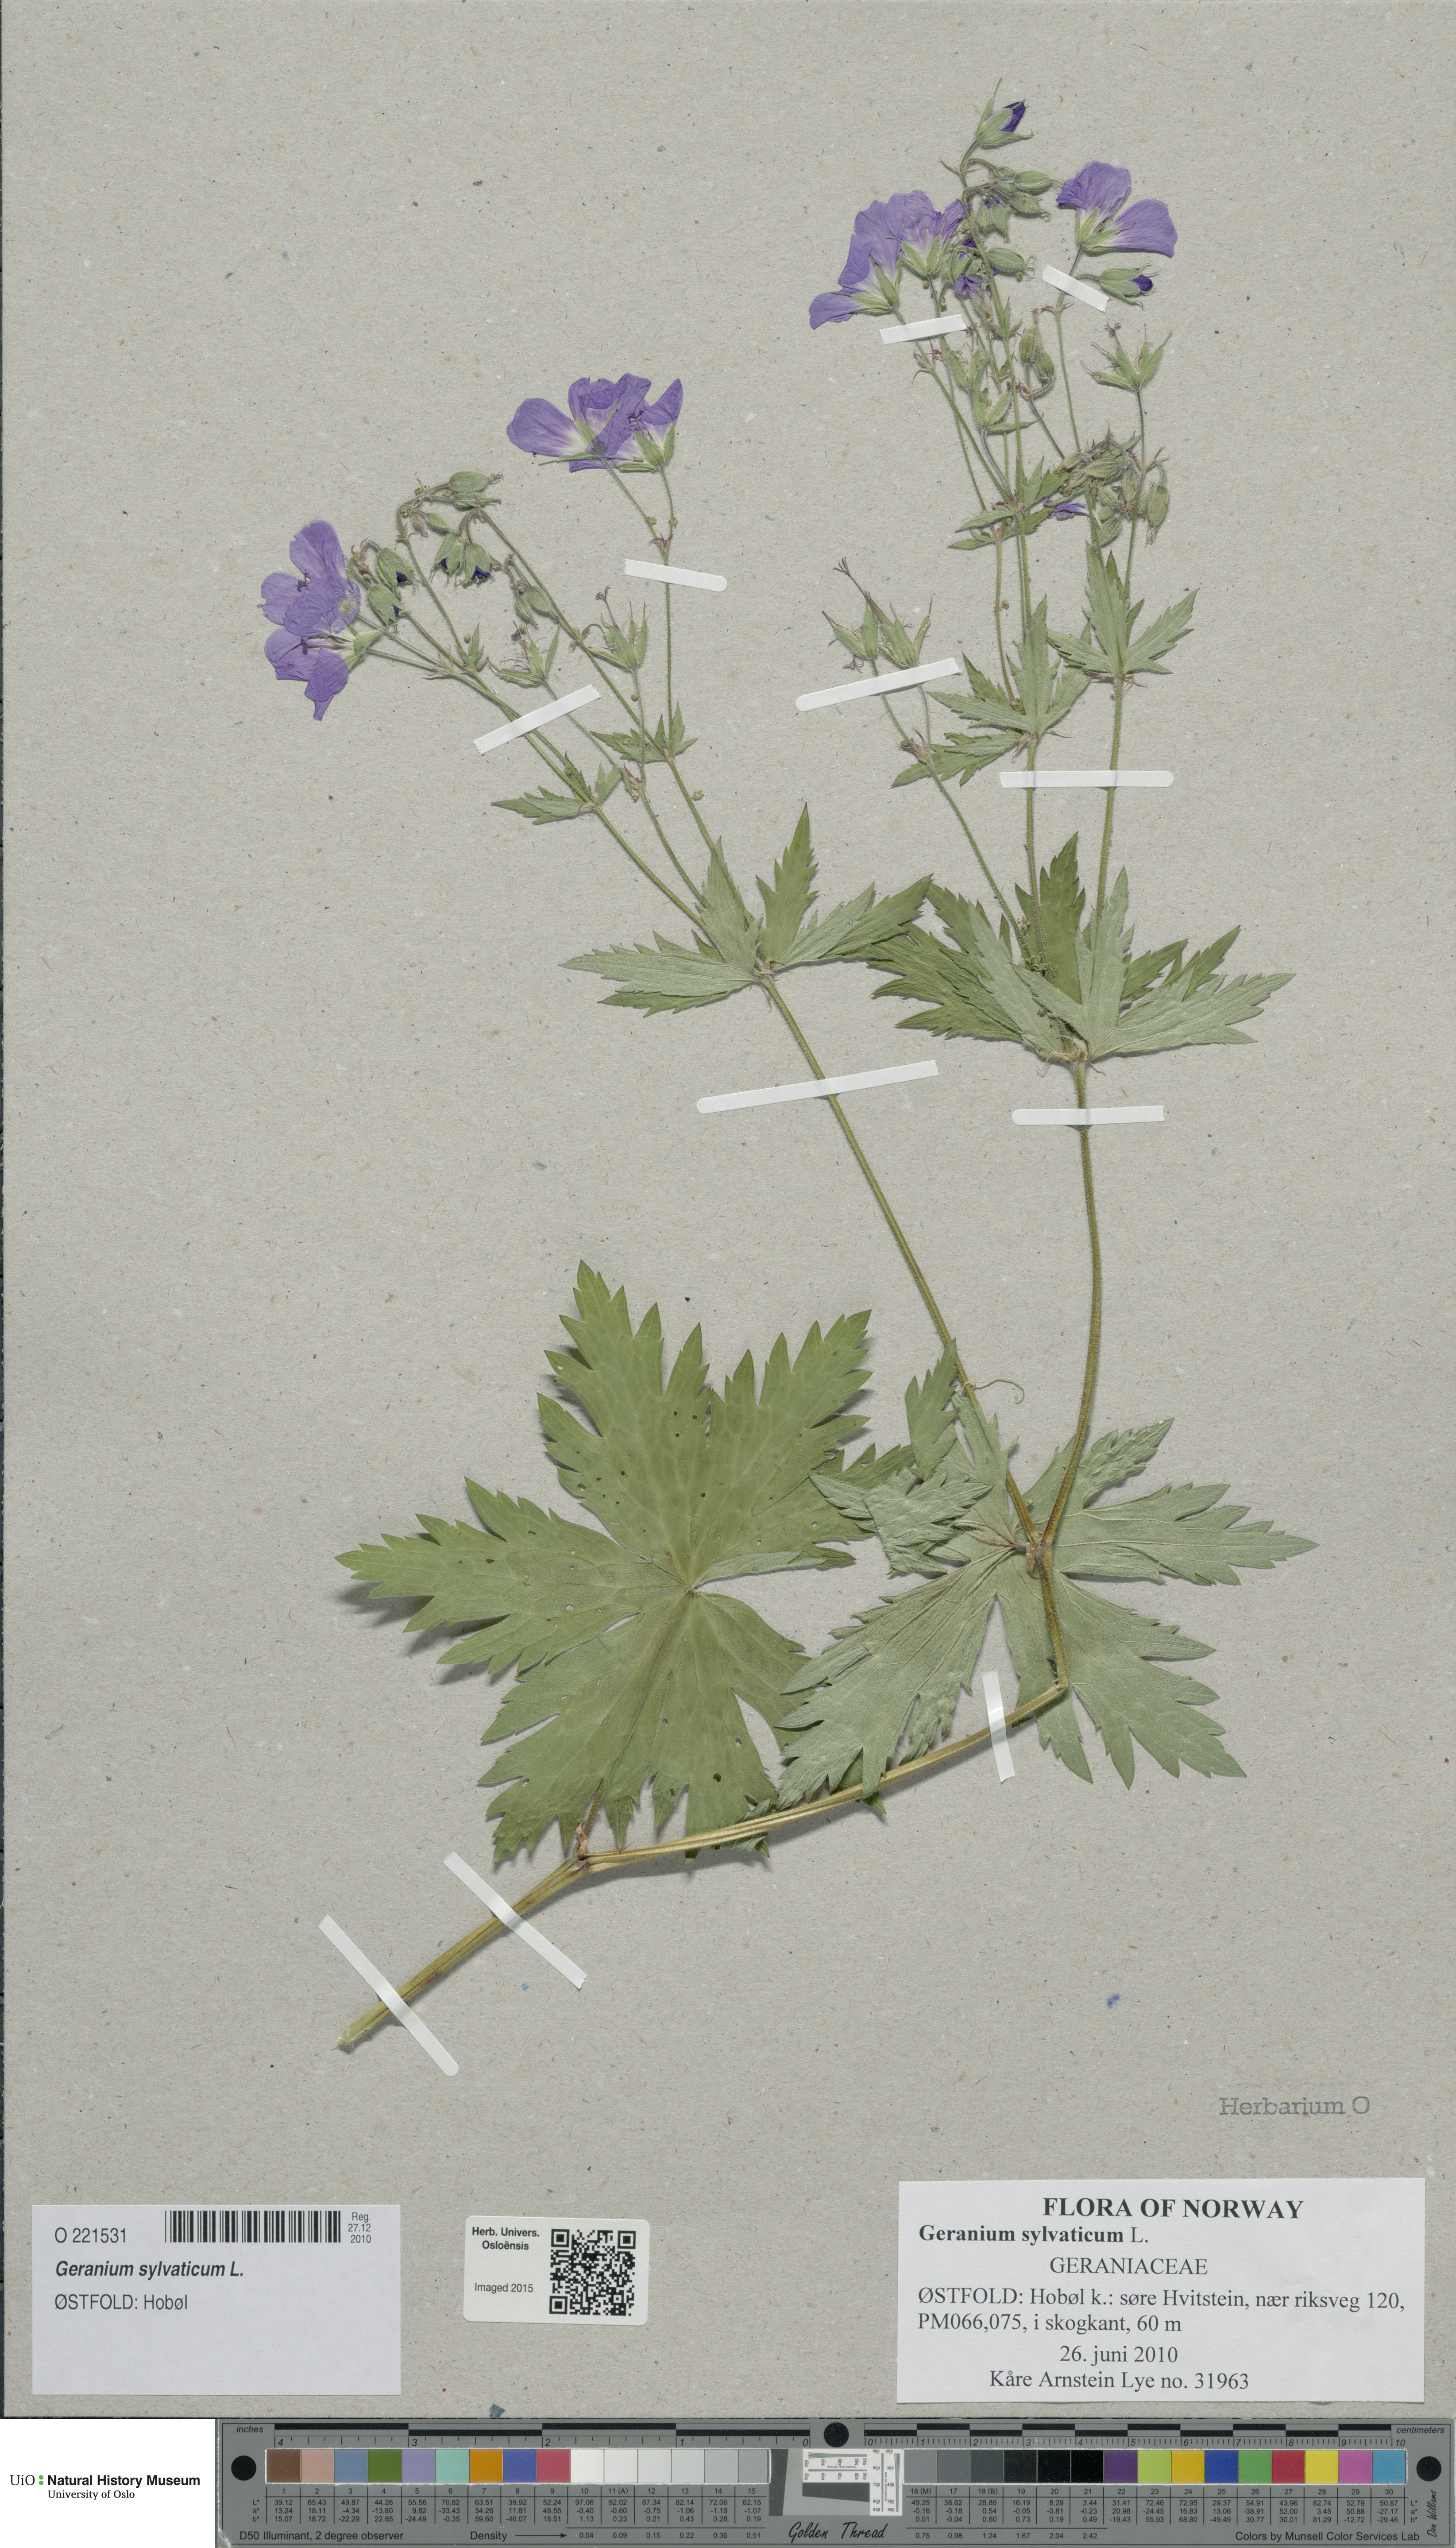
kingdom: Plantae
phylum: Tracheophyta
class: Magnoliopsida
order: Geraniales
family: Geraniaceae
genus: Geranium
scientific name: Geranium sylvaticum
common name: Wood crane's-bill
